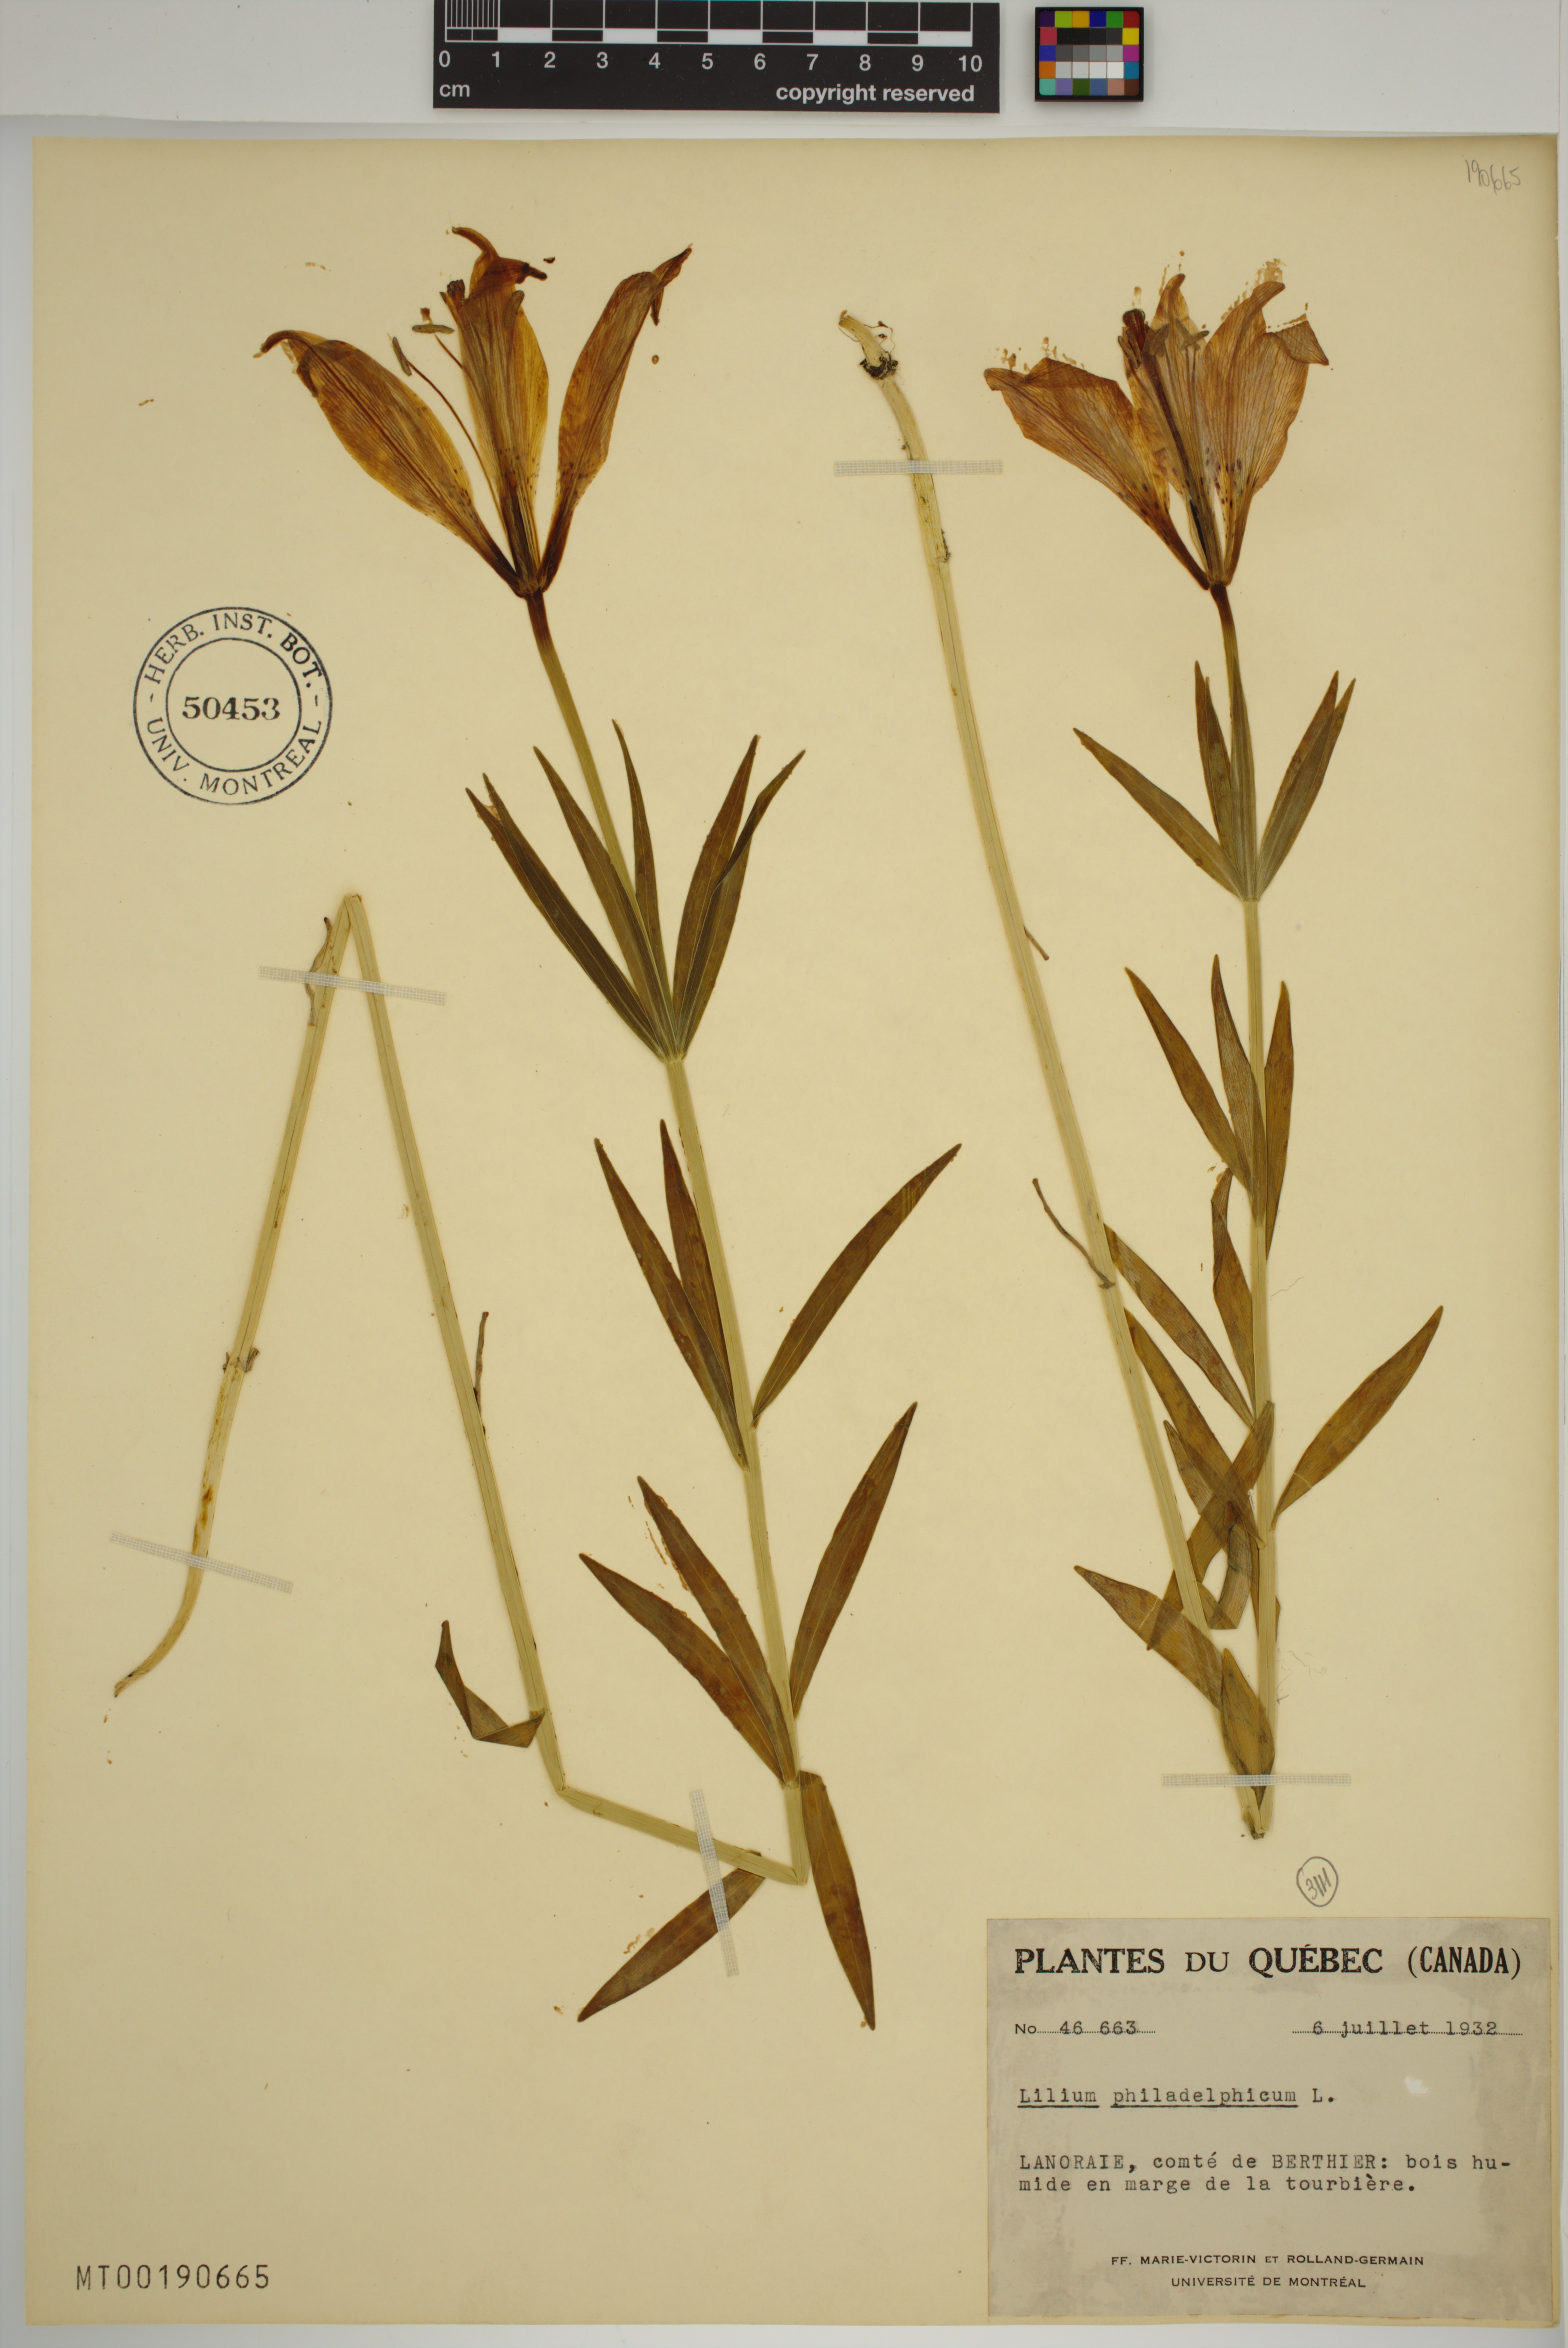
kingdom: Plantae
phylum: Tracheophyta
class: Liliopsida
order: Liliales
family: Liliaceae
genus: Lilium
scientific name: Lilium philadelphicum
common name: Red lily
